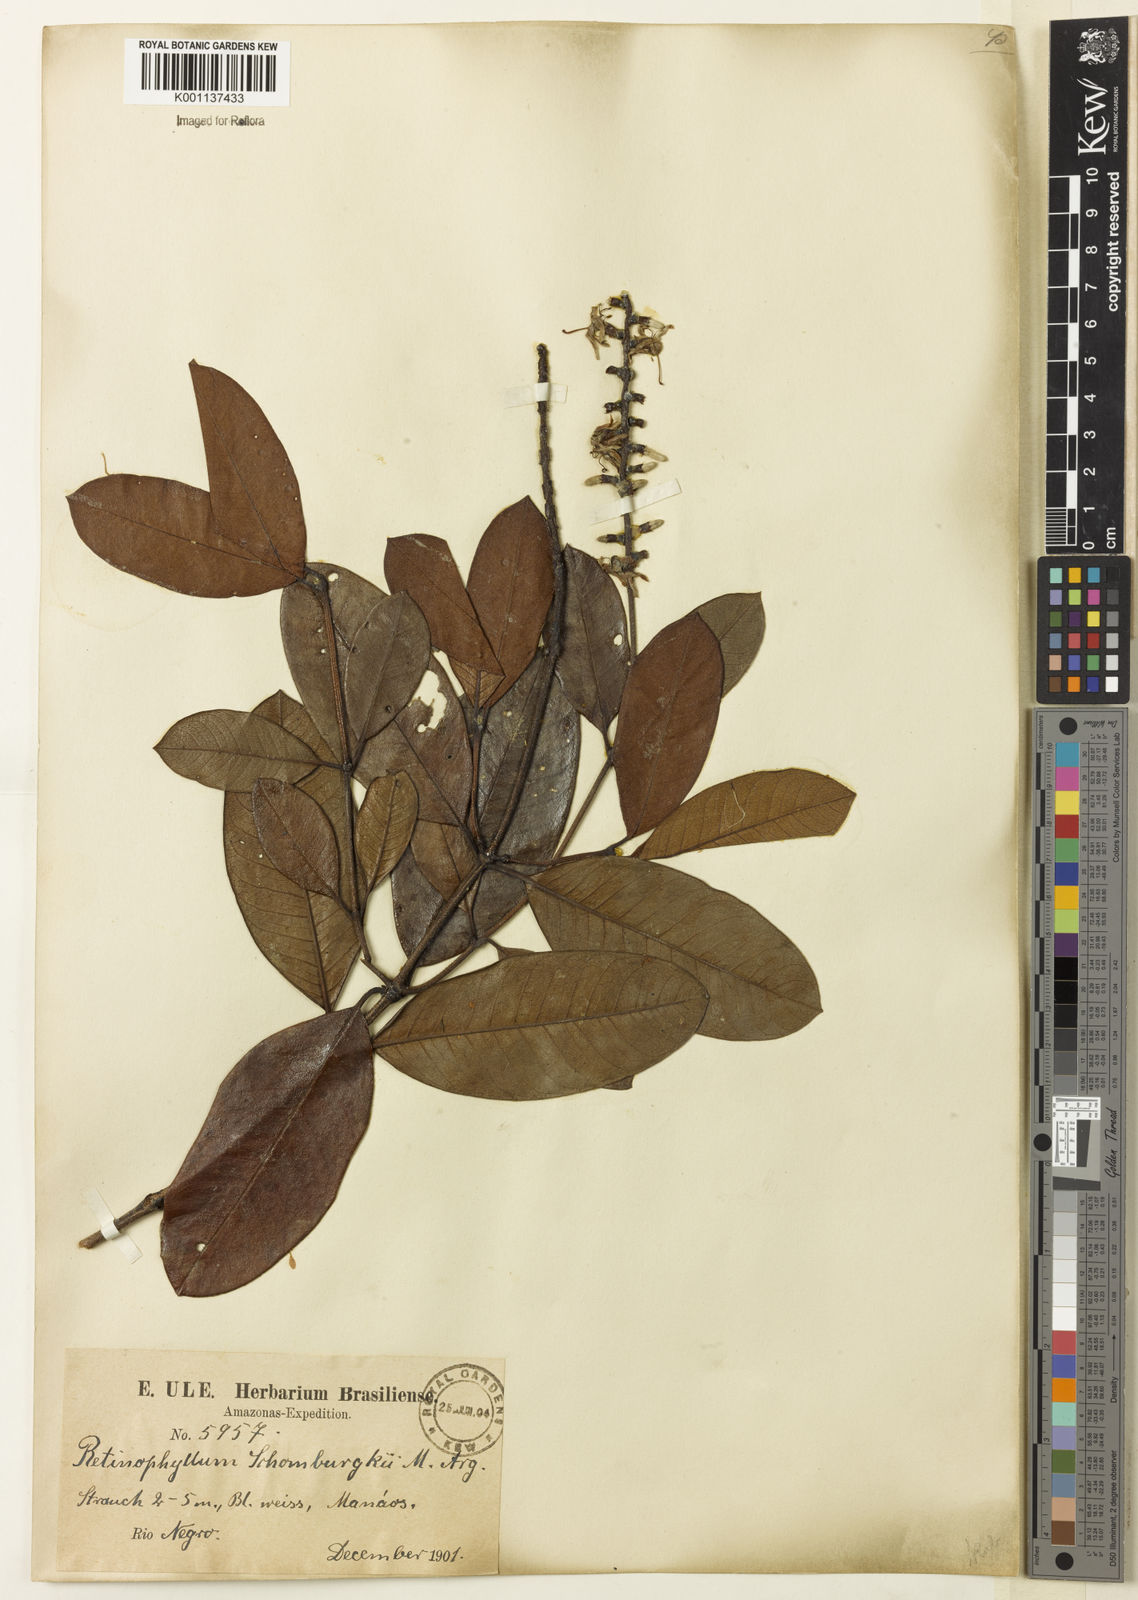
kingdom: Plantae
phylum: Tracheophyta
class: Magnoliopsida
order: Gentianales
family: Rubiaceae
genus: Retiniphyllum
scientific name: Retiniphyllum
